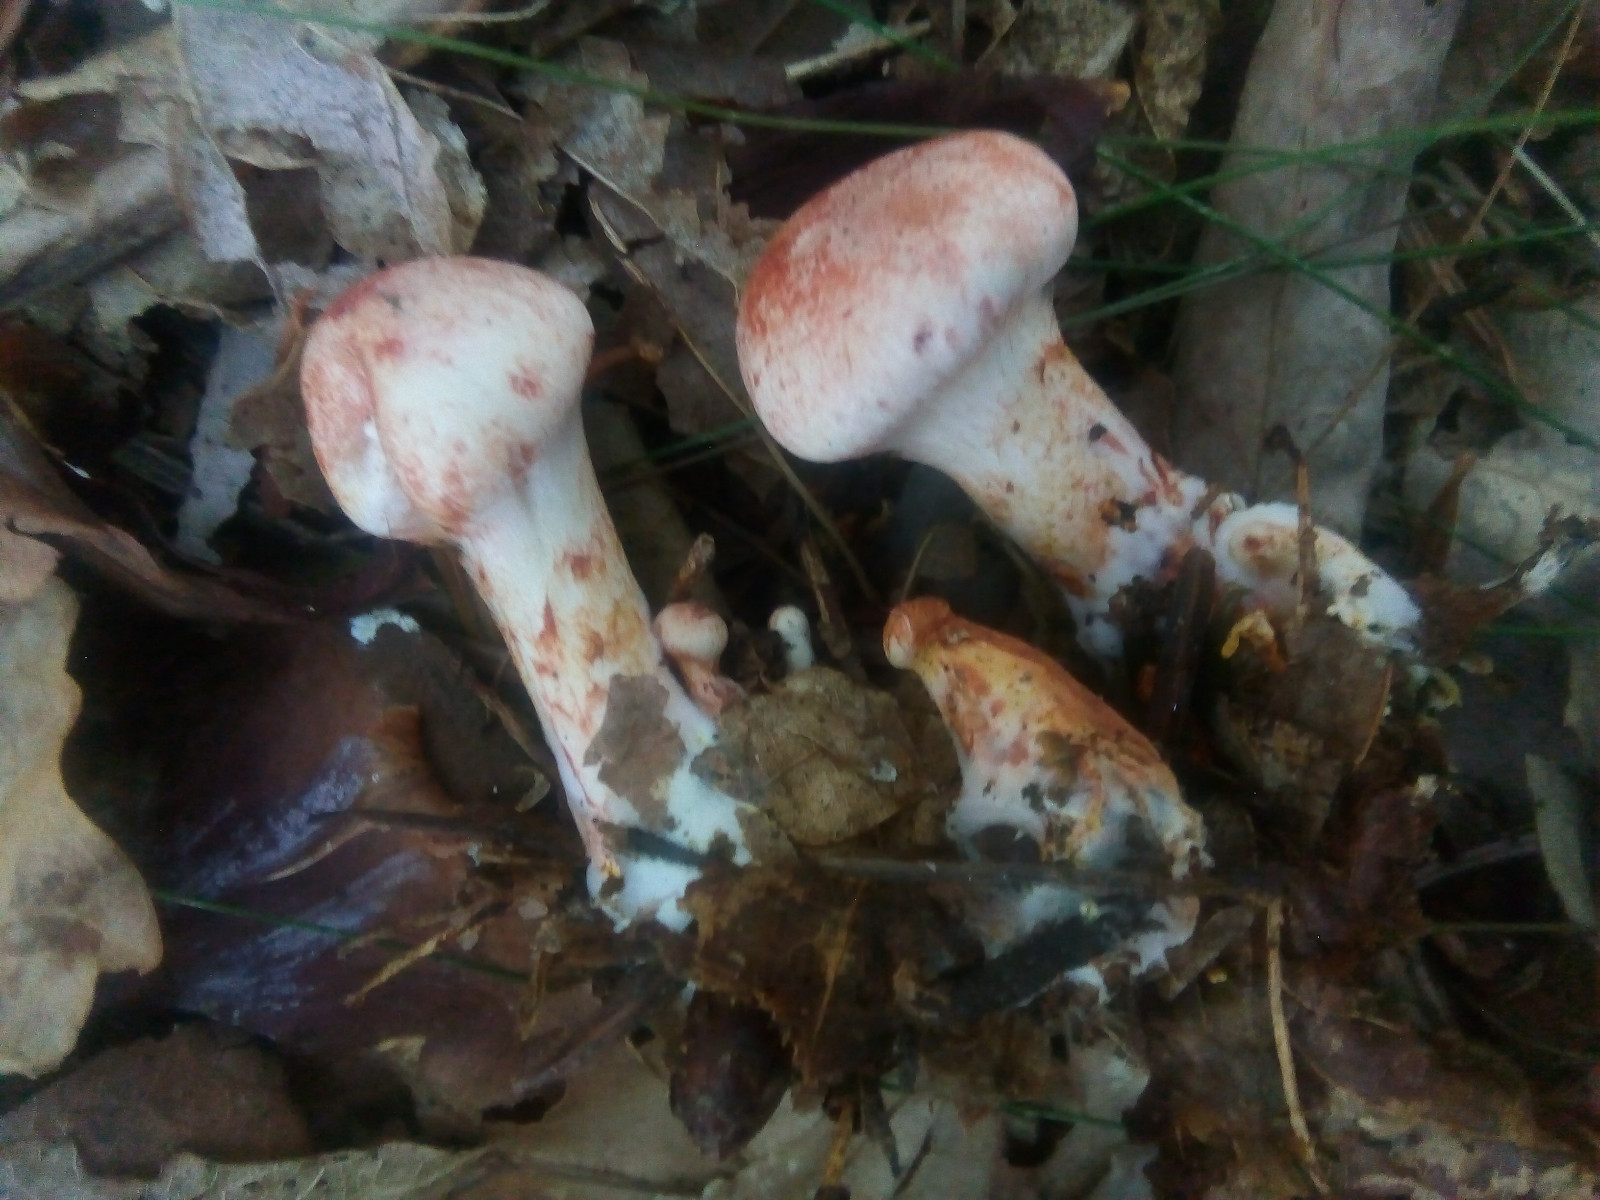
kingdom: Fungi
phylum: Basidiomycota
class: Agaricomycetes
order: Agaricales
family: Cortinariaceae
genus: Cortinarius
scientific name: Cortinarius bolaris
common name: cinnoberskællet slørhat
